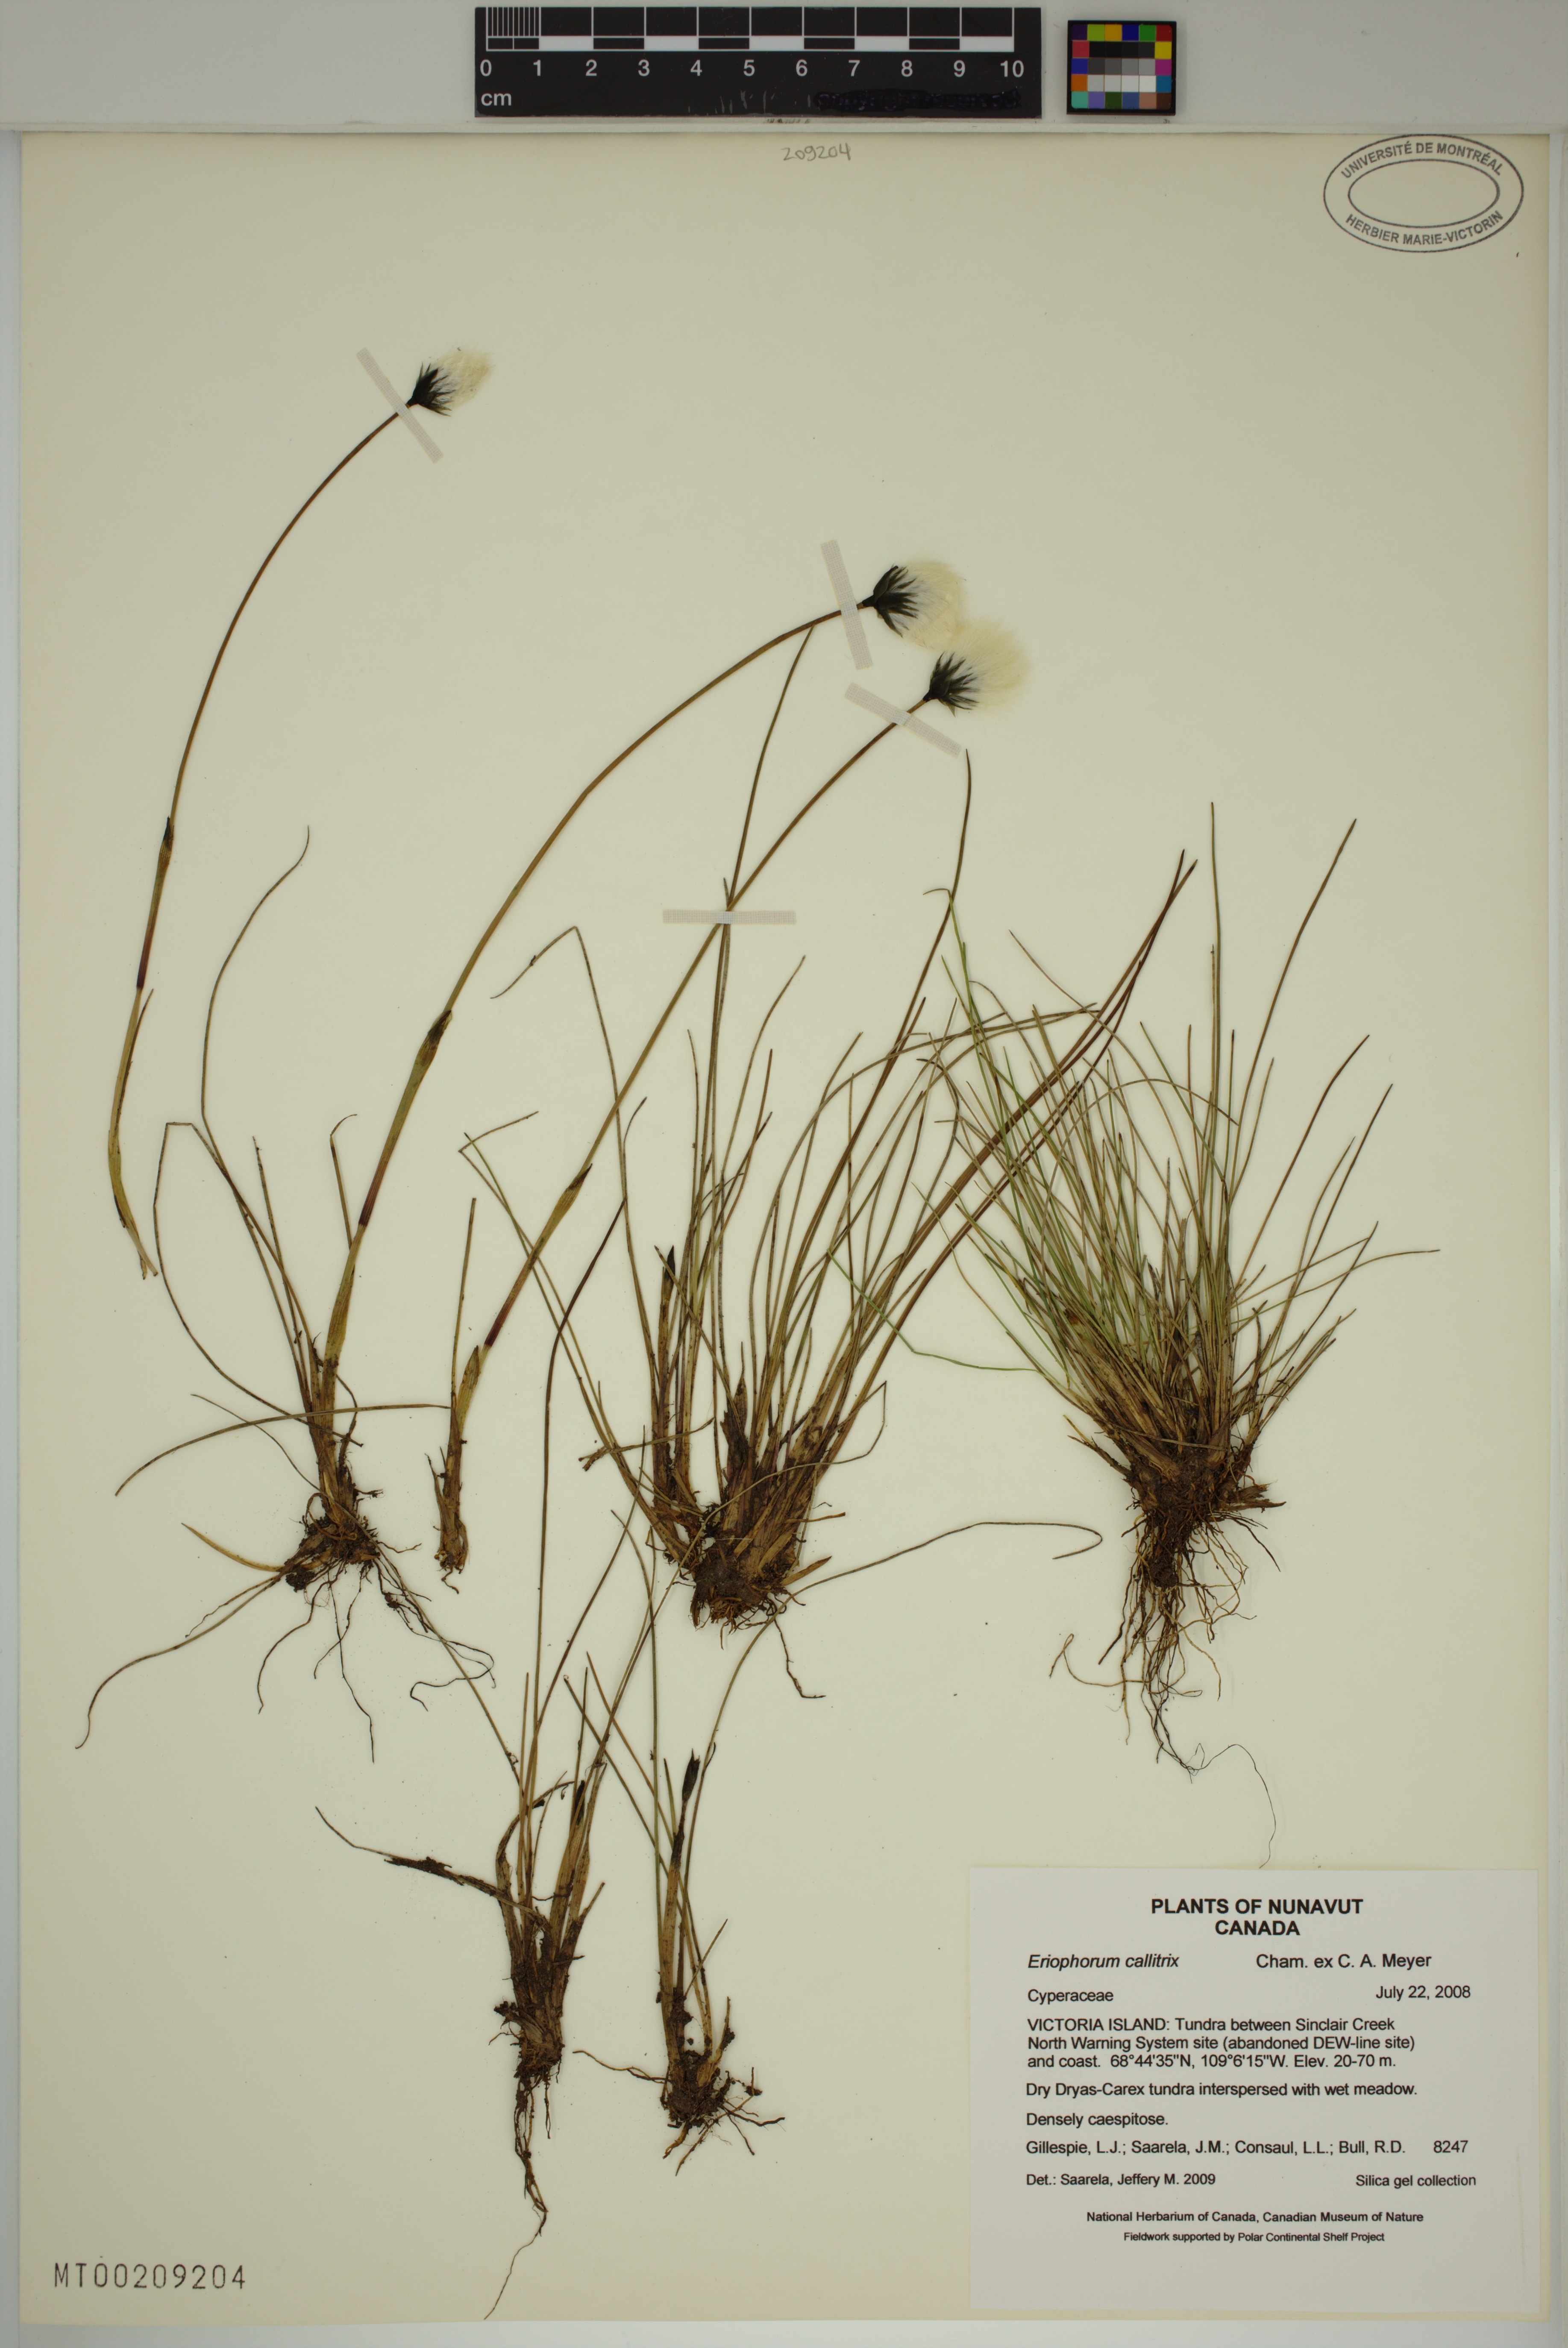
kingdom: Plantae
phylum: Tracheophyta
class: Liliopsida
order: Poales
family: Cyperaceae
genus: Eriophorum
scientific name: Eriophorum callitrix
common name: Arctic cottongrass
